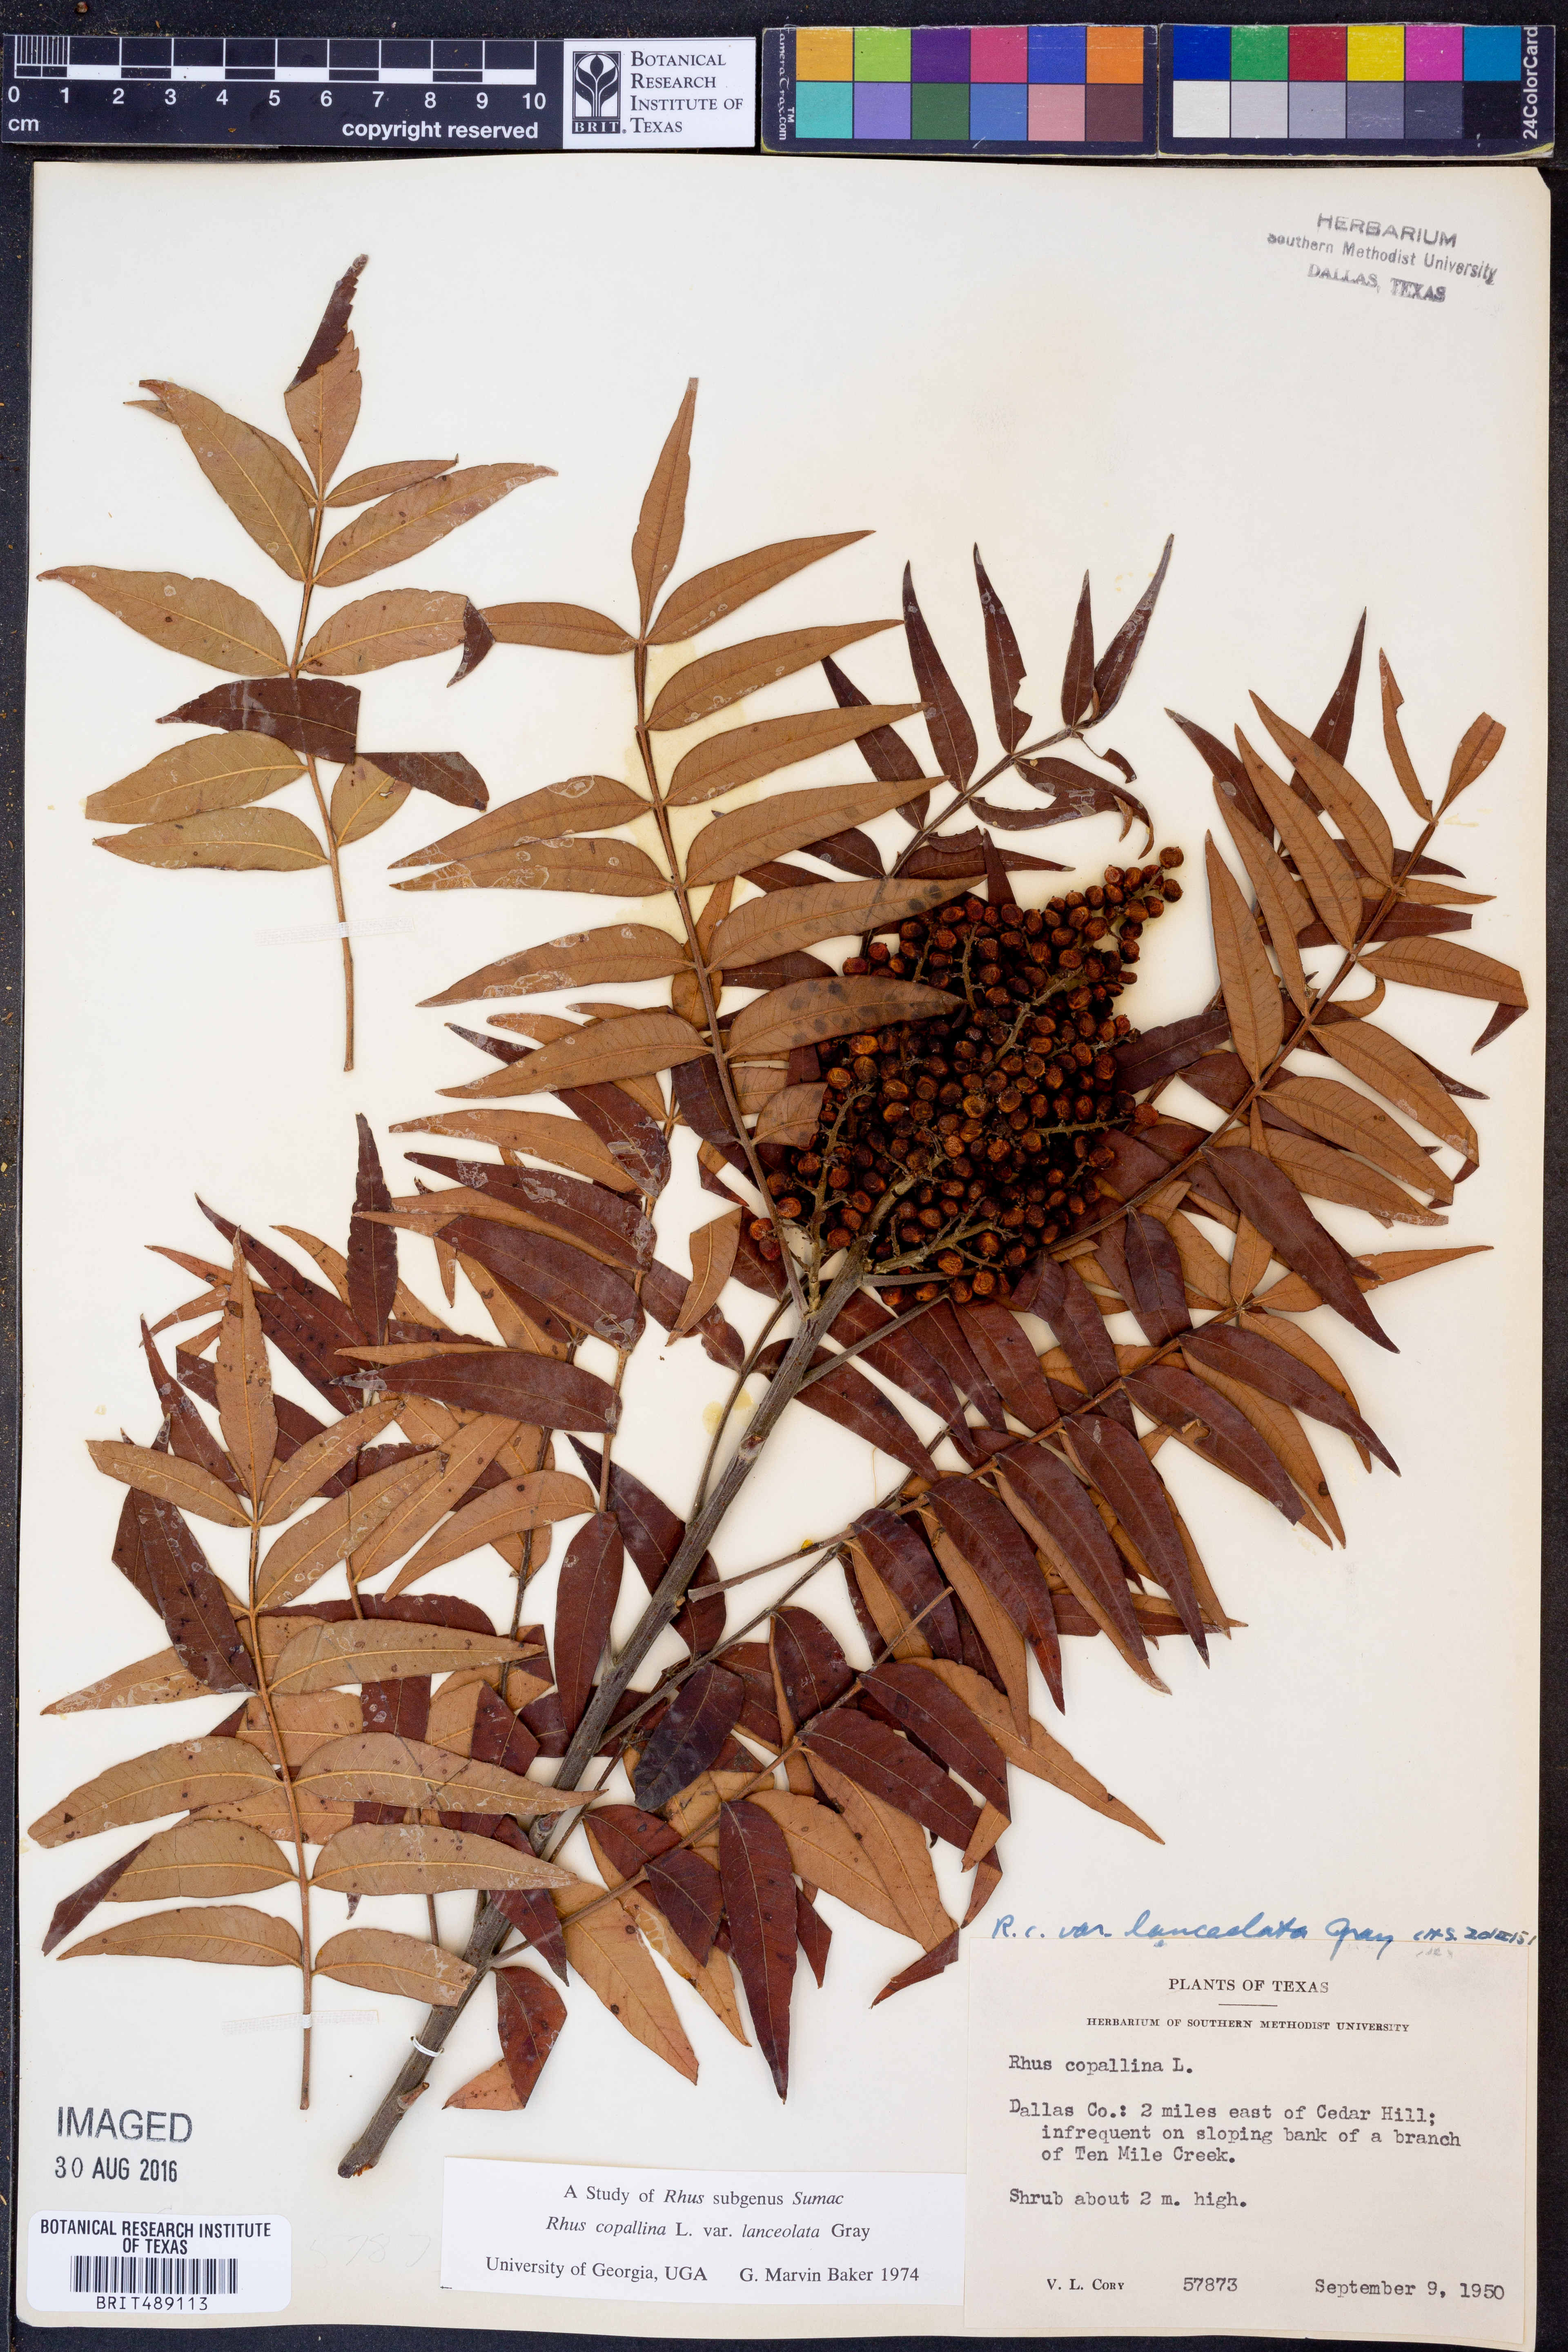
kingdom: Plantae
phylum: Tracheophyta
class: Magnoliopsida
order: Sapindales
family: Anacardiaceae
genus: Rhus
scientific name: Rhus lanceolata
